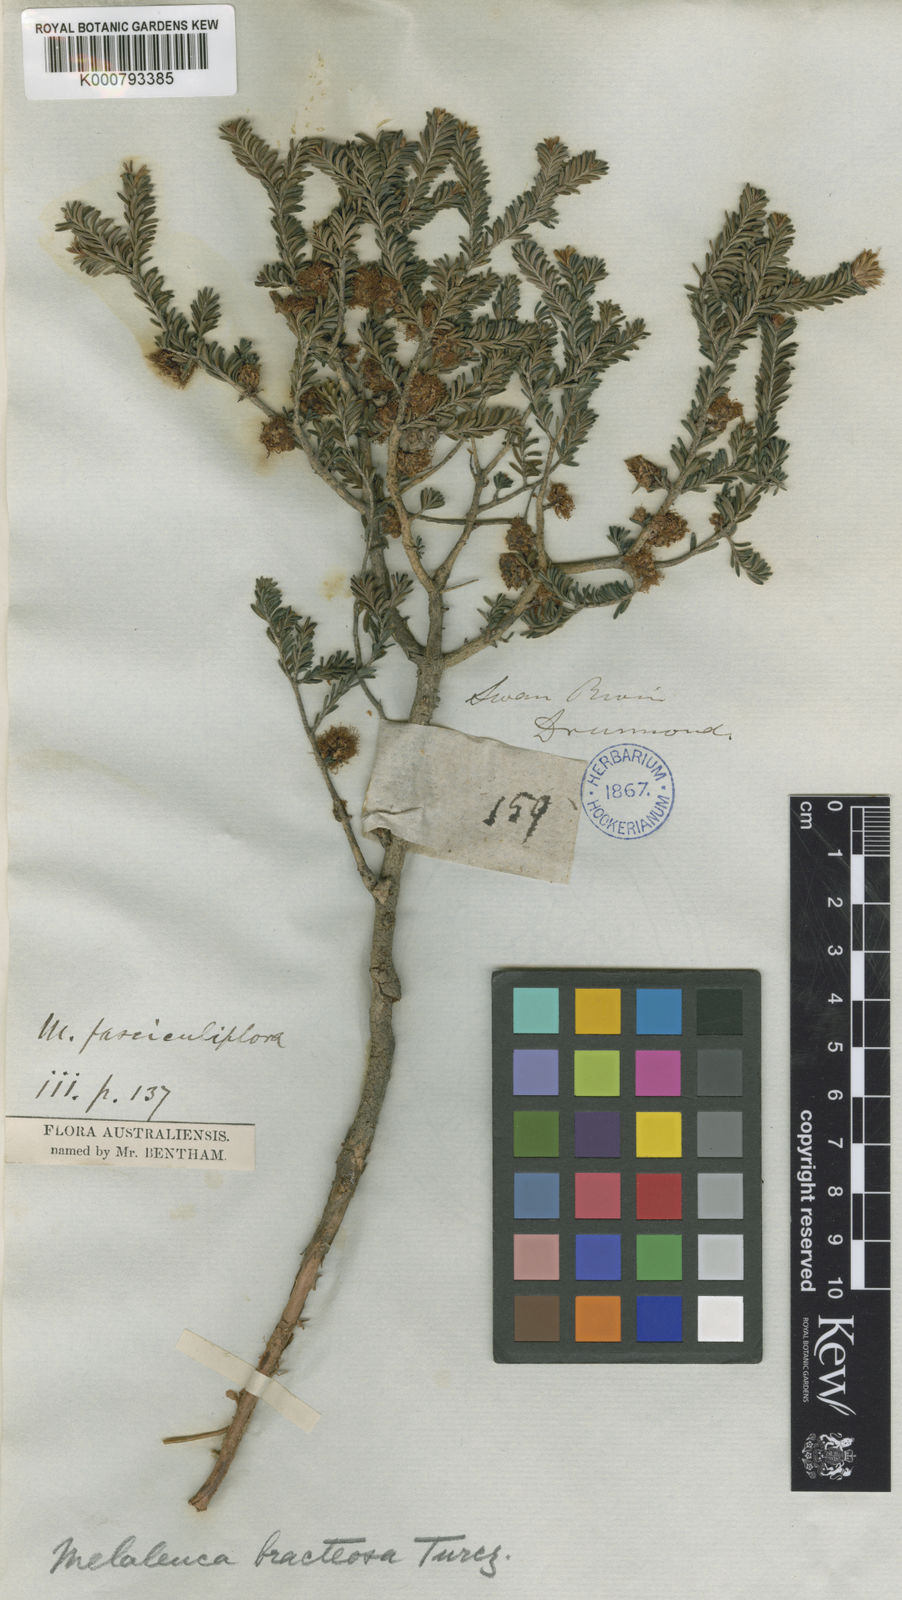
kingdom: Plantae
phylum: Tracheophyta
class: Magnoliopsida
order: Myrtales
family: Myrtaceae
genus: Melaleuca
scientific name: Melaleuca bracteosa
